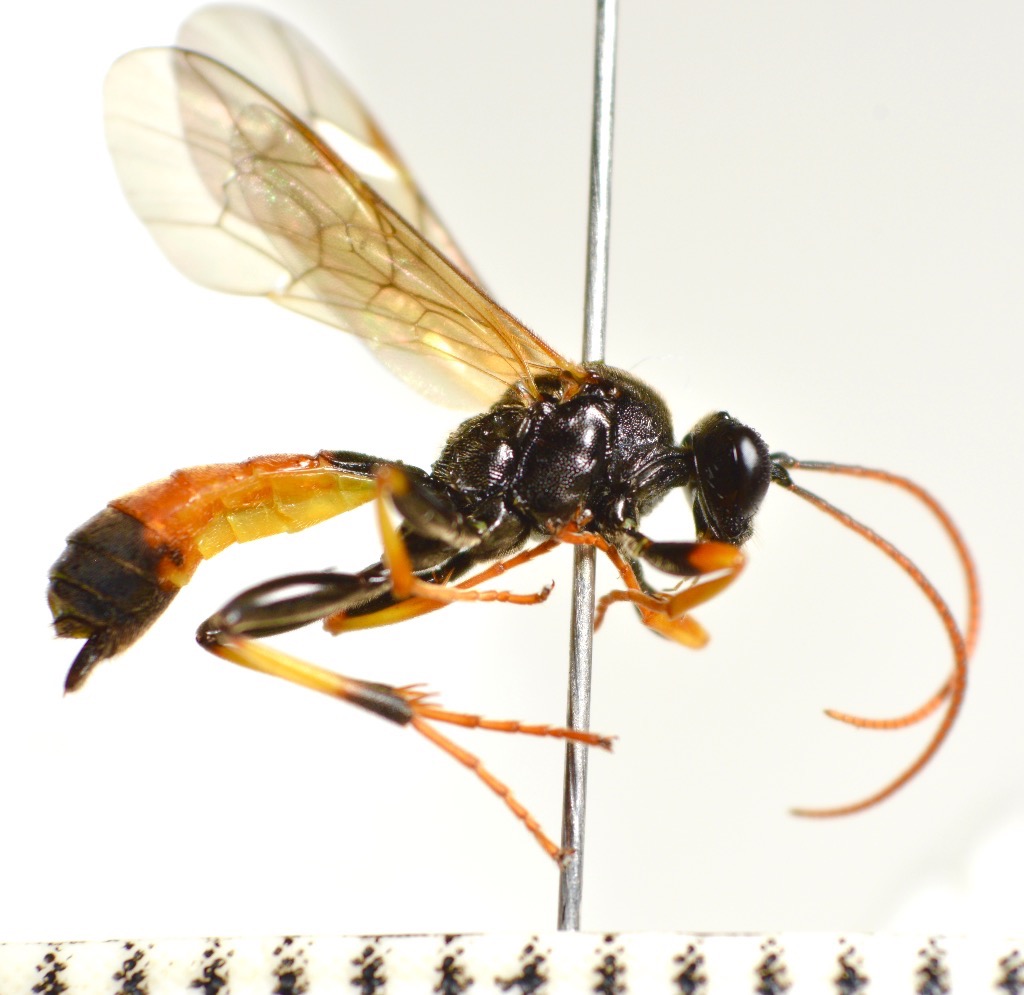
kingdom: Animalia
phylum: Arthropoda
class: Insecta
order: Hymenoptera
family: Ichneumonidae
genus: Cosmoconus
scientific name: Cosmoconus elongator
